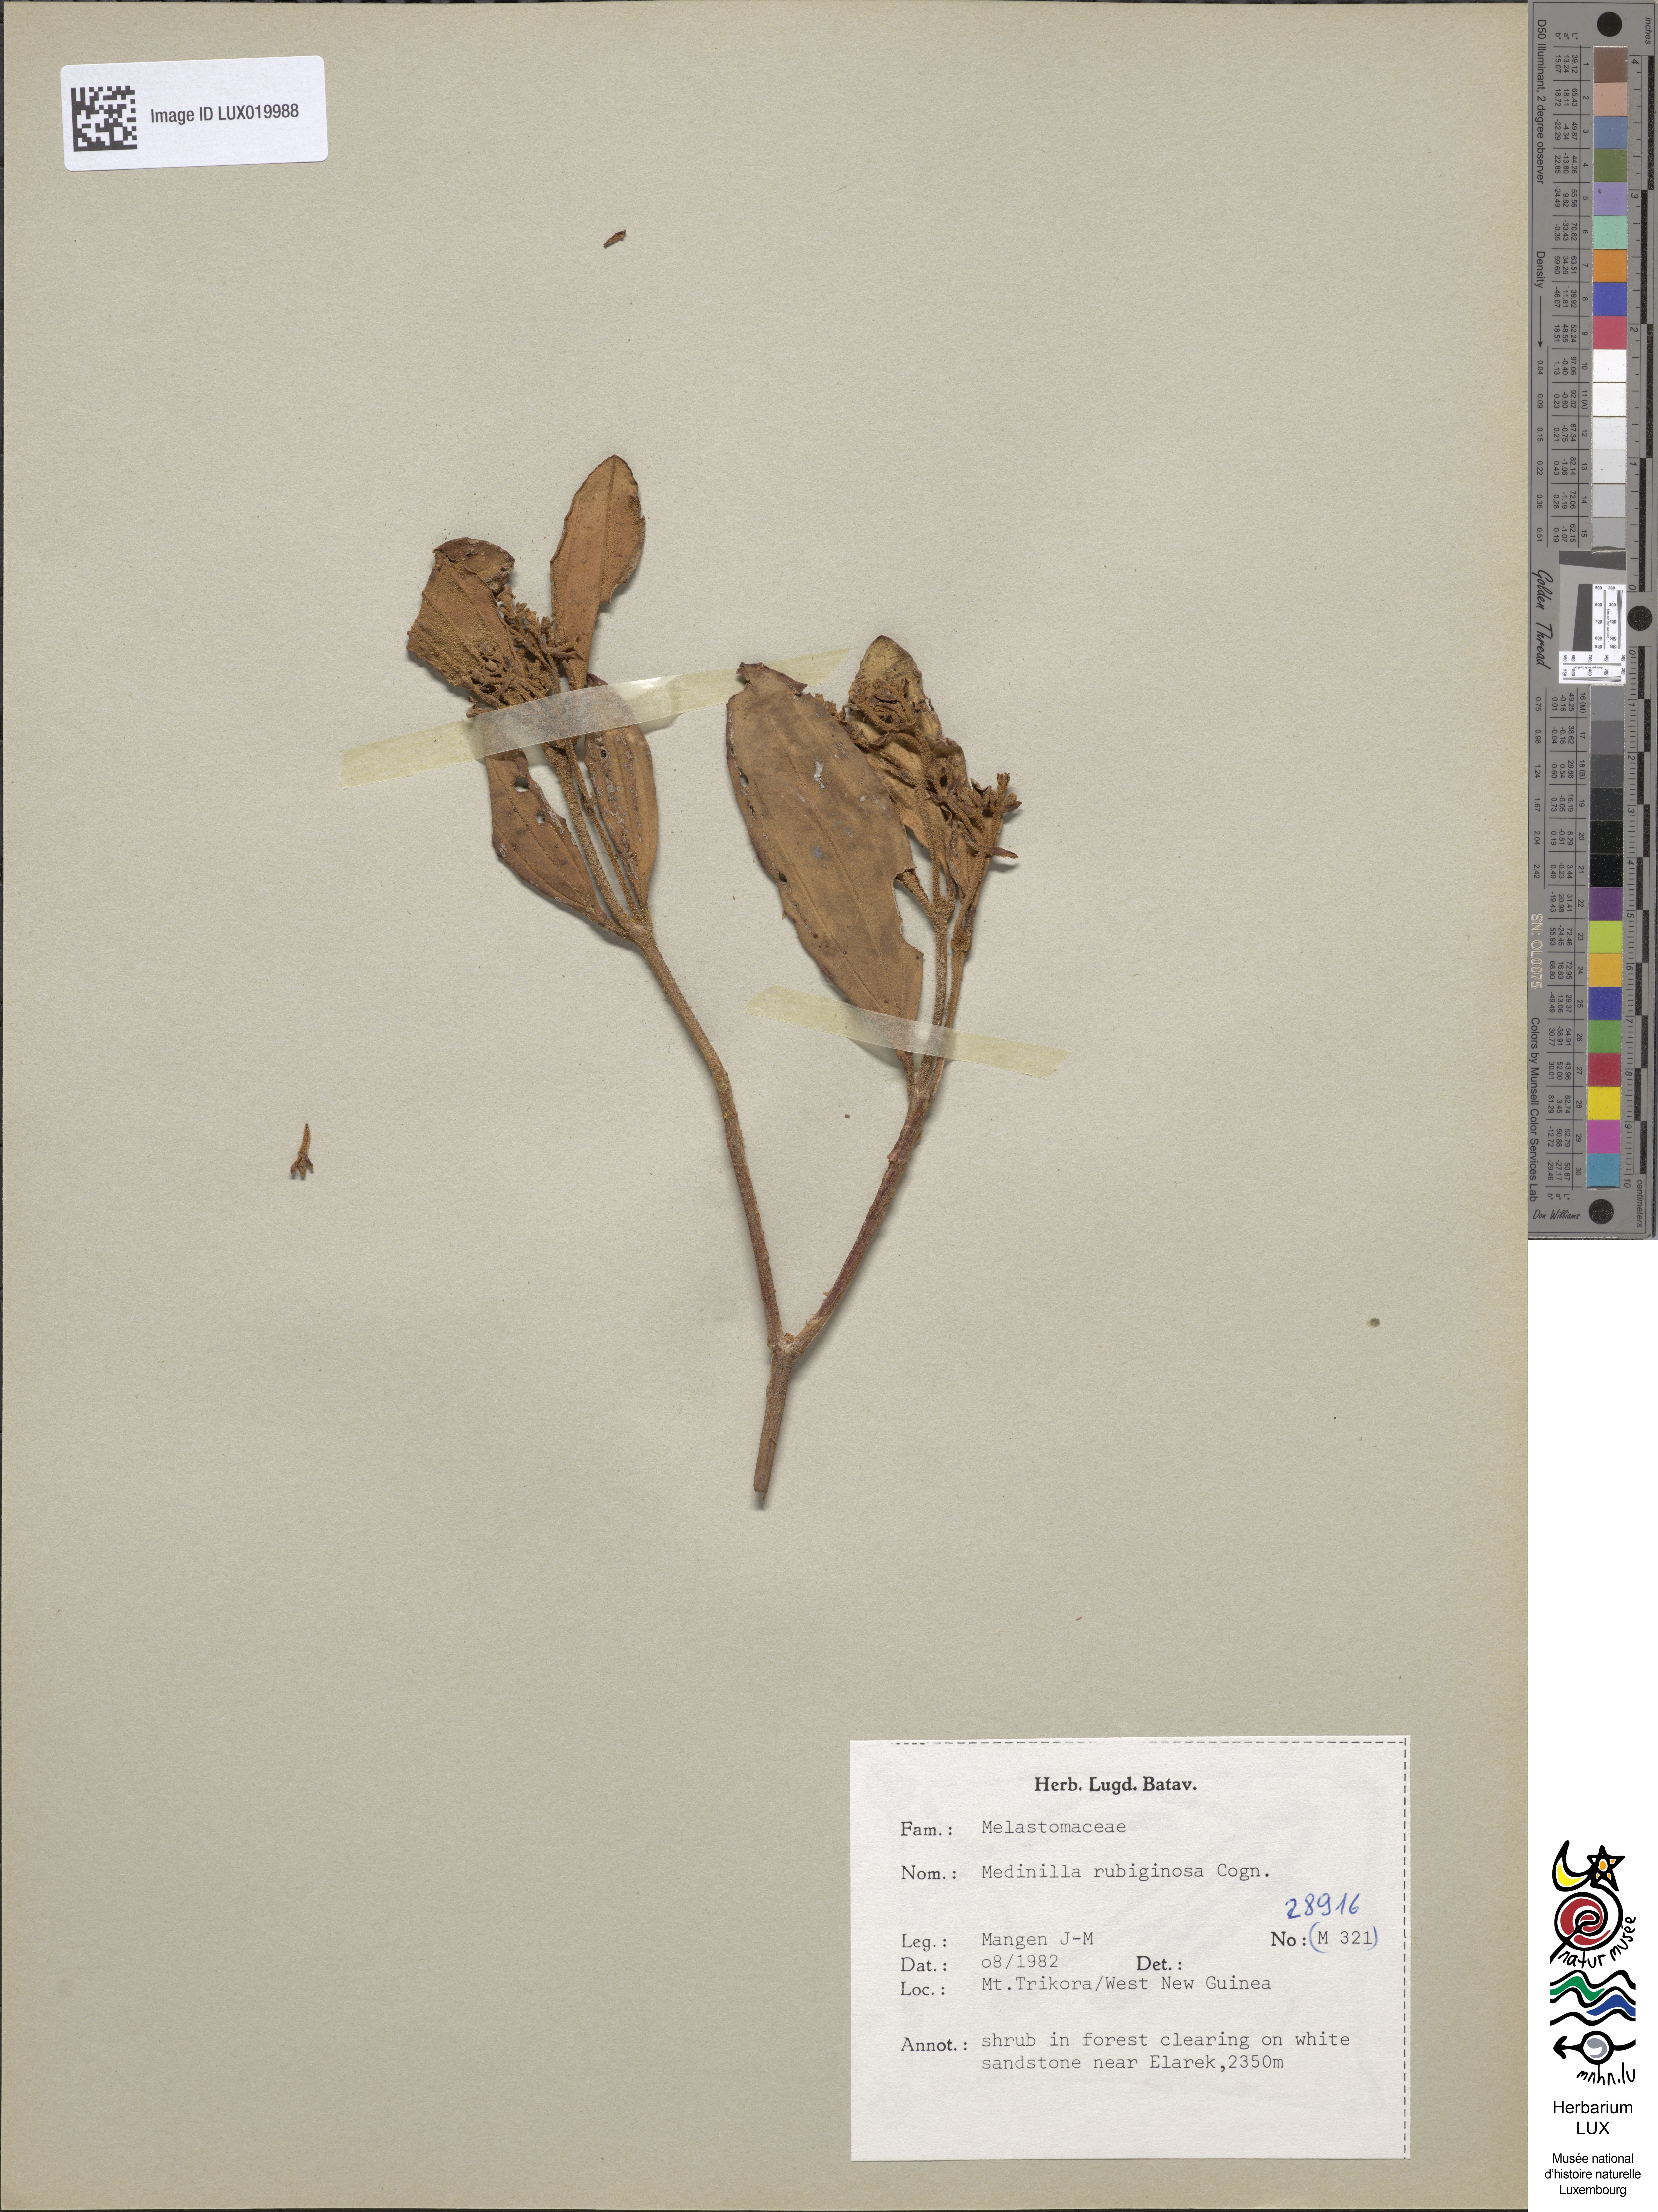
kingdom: Plantae
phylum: Tracheophyta
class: Magnoliopsida
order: Myrtales
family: Melastomataceae
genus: Medinilla
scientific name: Medinilla rubiginosa
